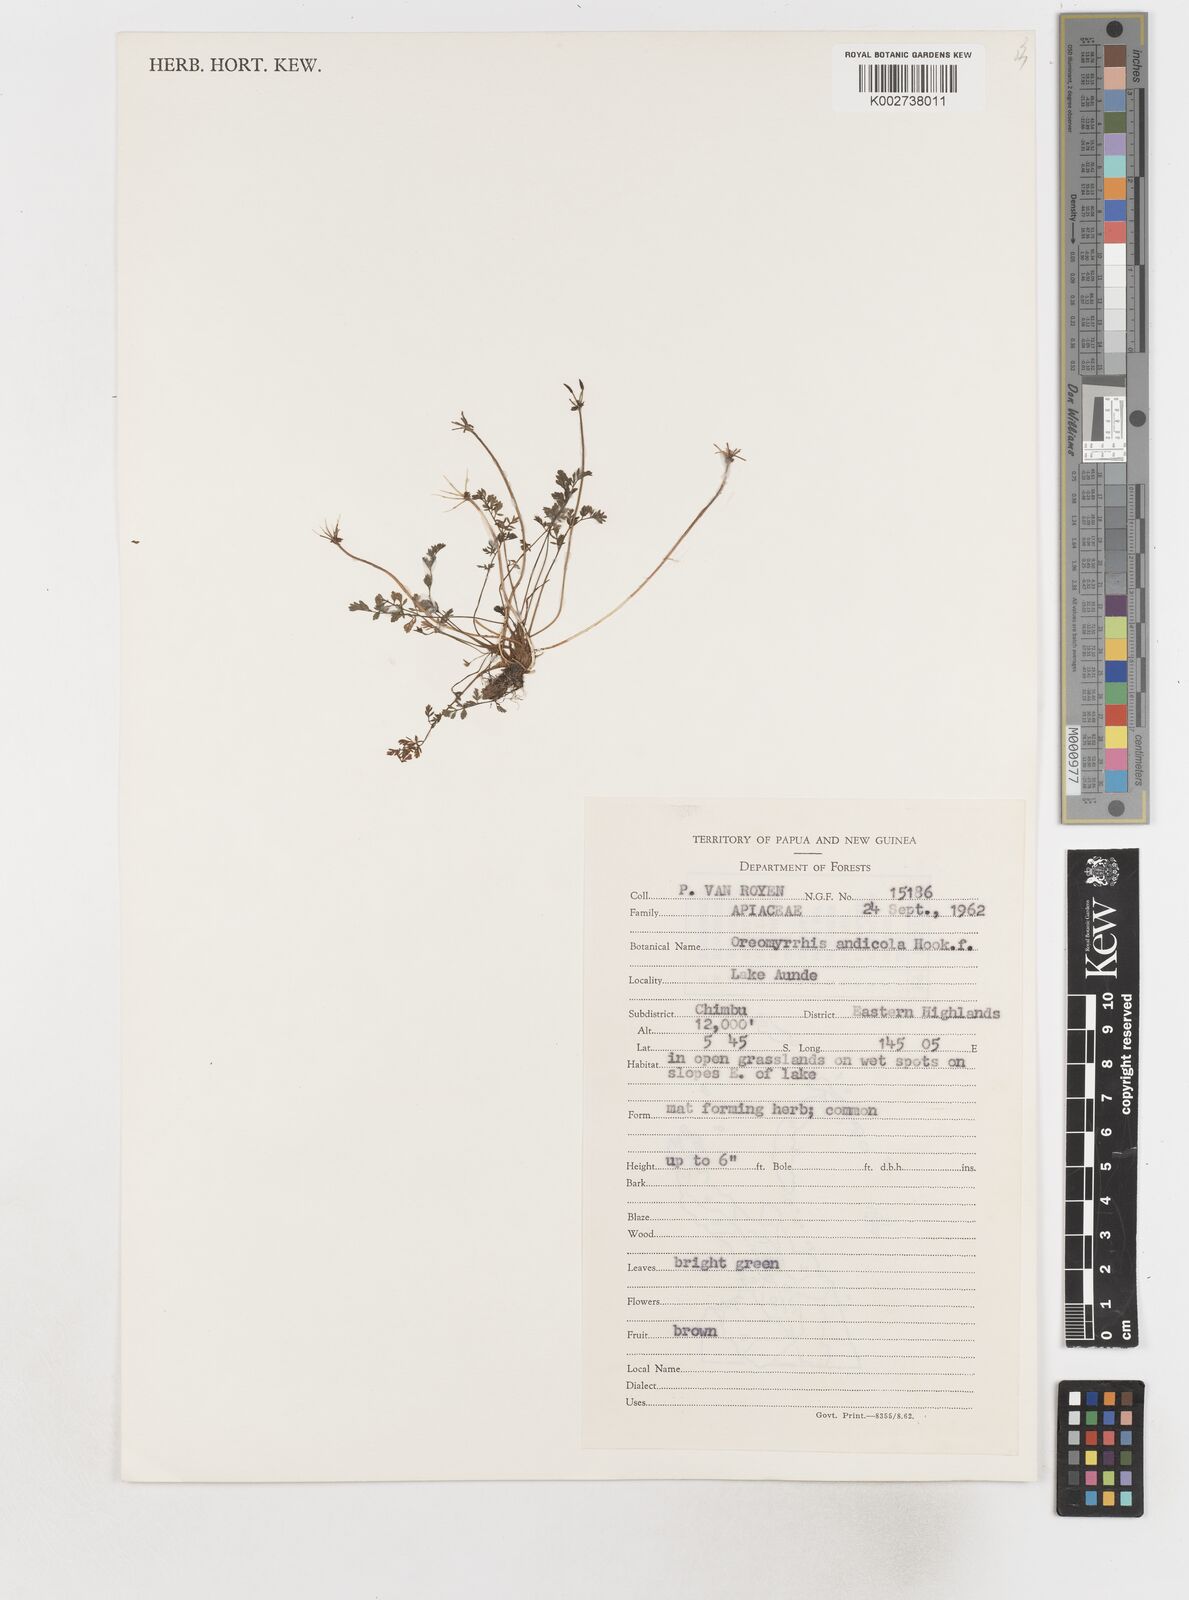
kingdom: Plantae
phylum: Tracheophyta
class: Magnoliopsida
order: Apiales
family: Apiaceae
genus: Chaerophyllum
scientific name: Chaerophyllum papuanum
